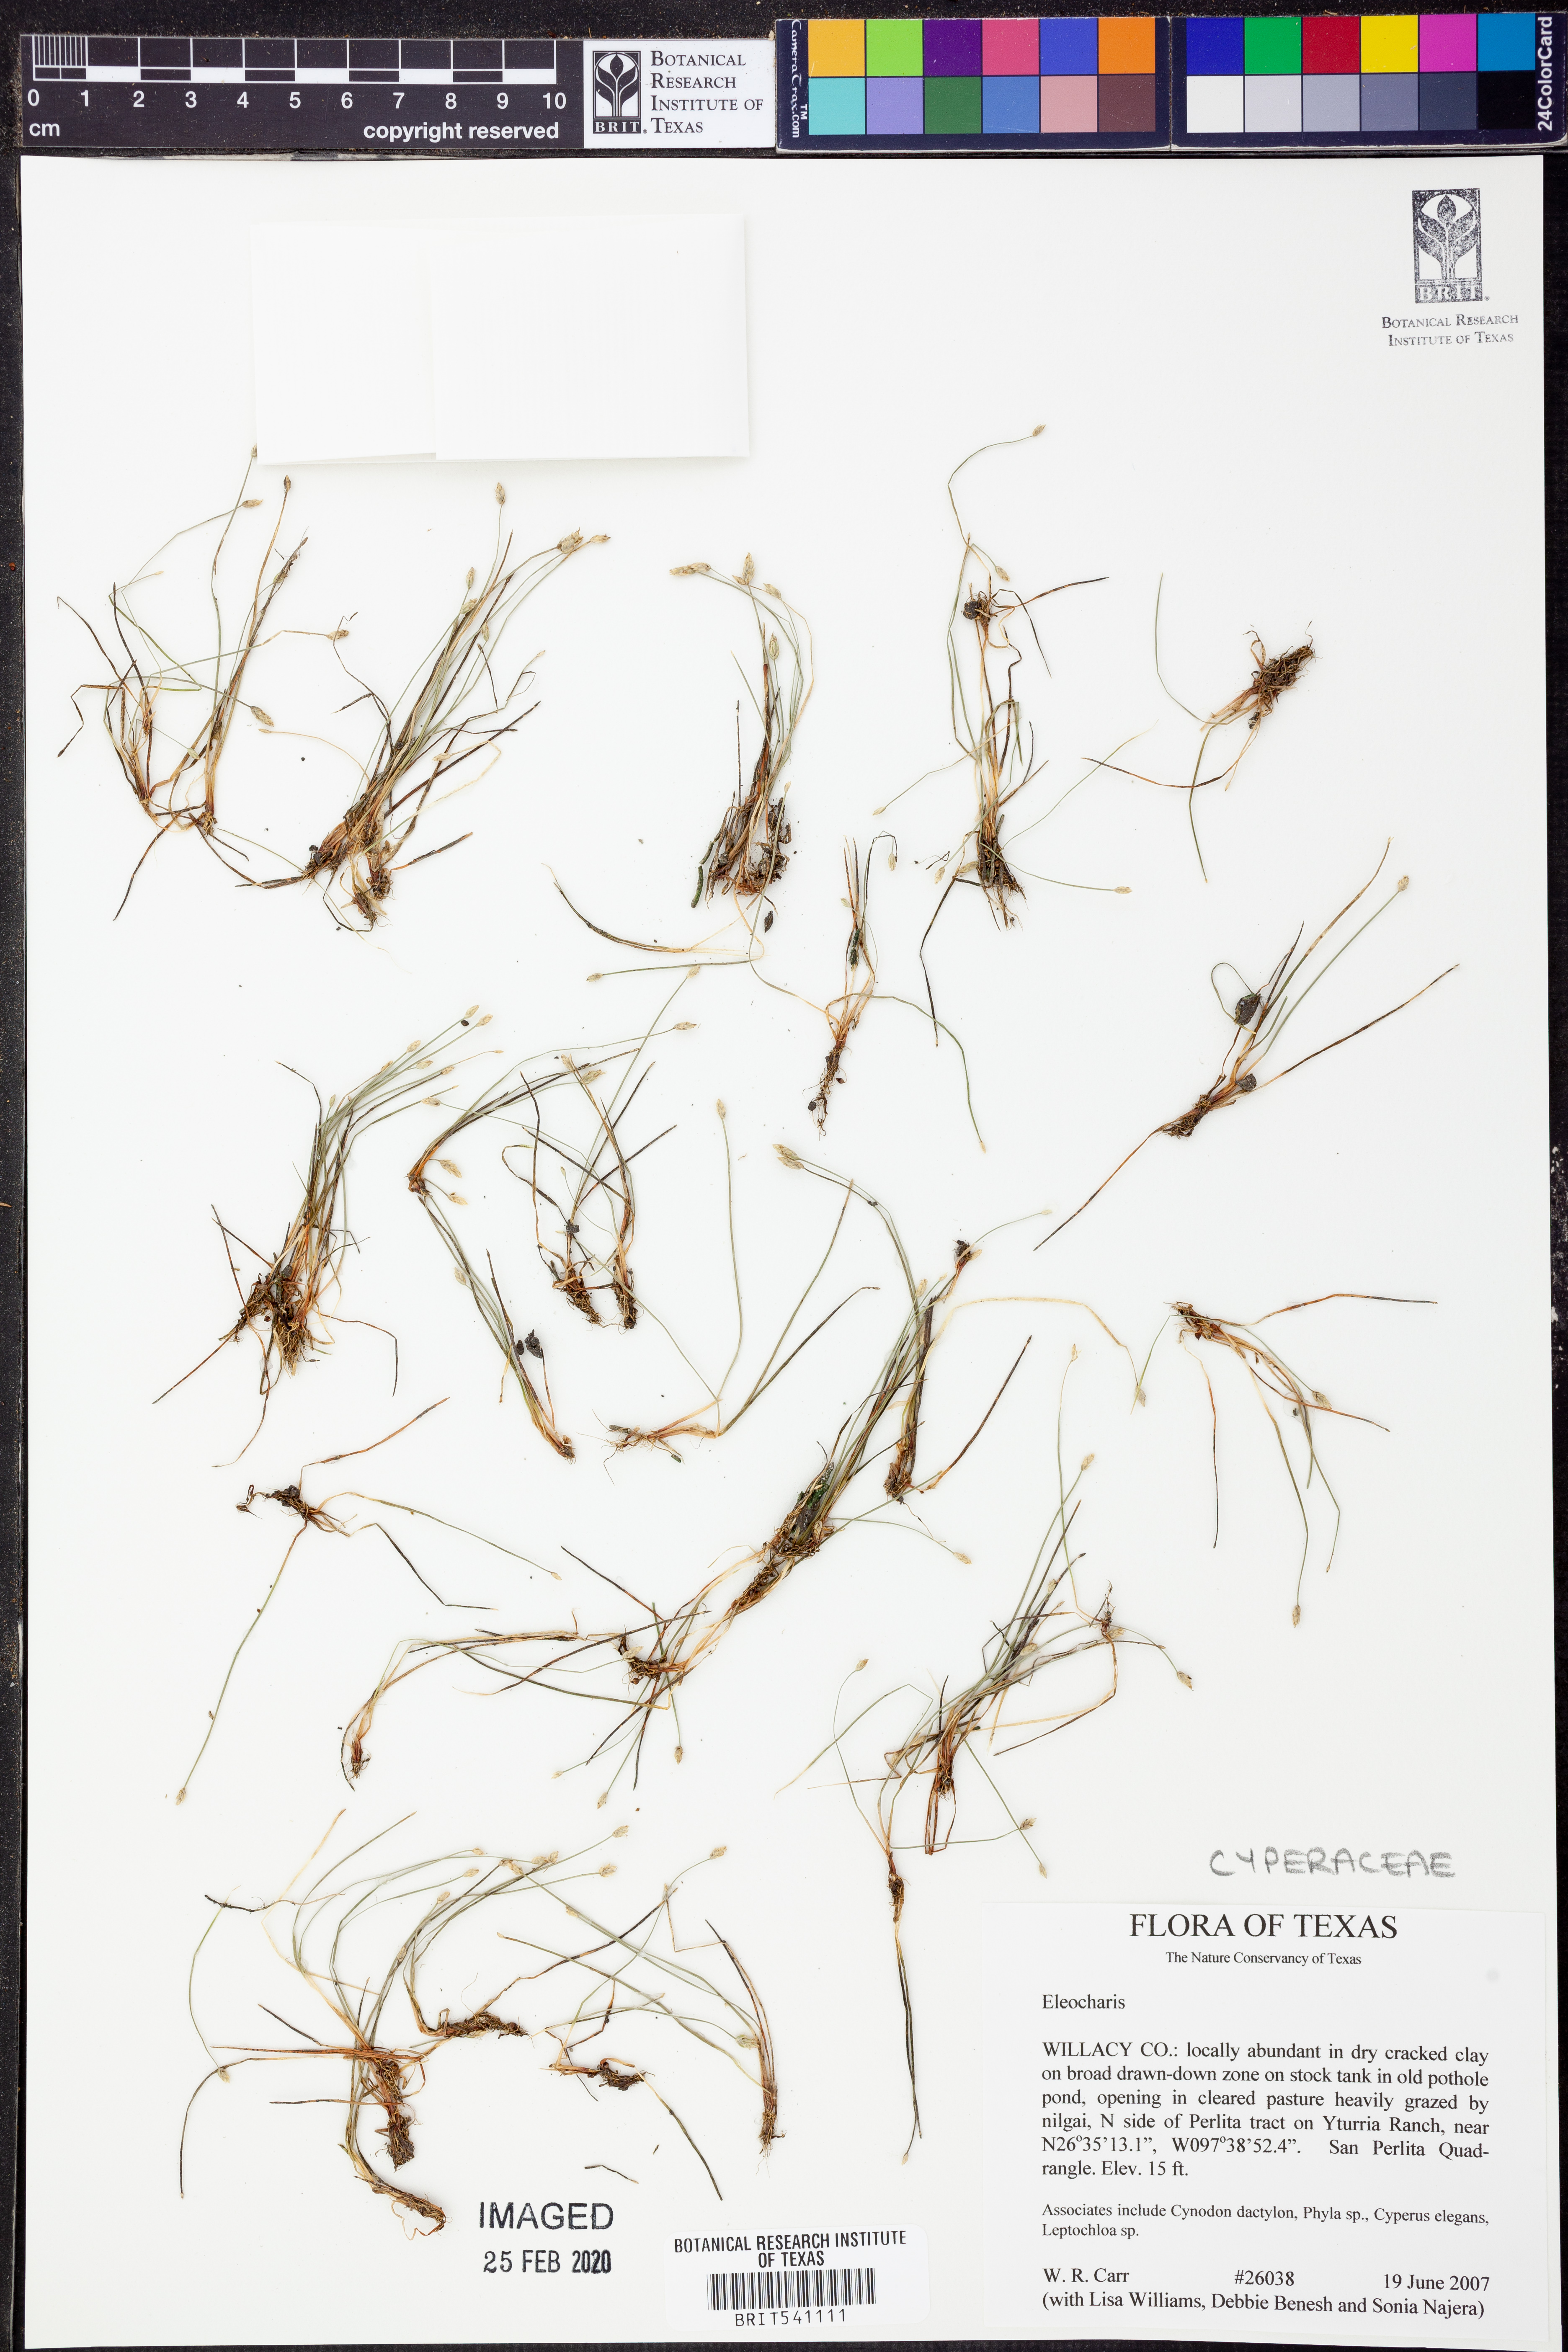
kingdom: Plantae
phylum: Tracheophyta
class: Liliopsida
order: Poales
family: Cyperaceae
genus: Eleocharis
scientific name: Eleocharis
